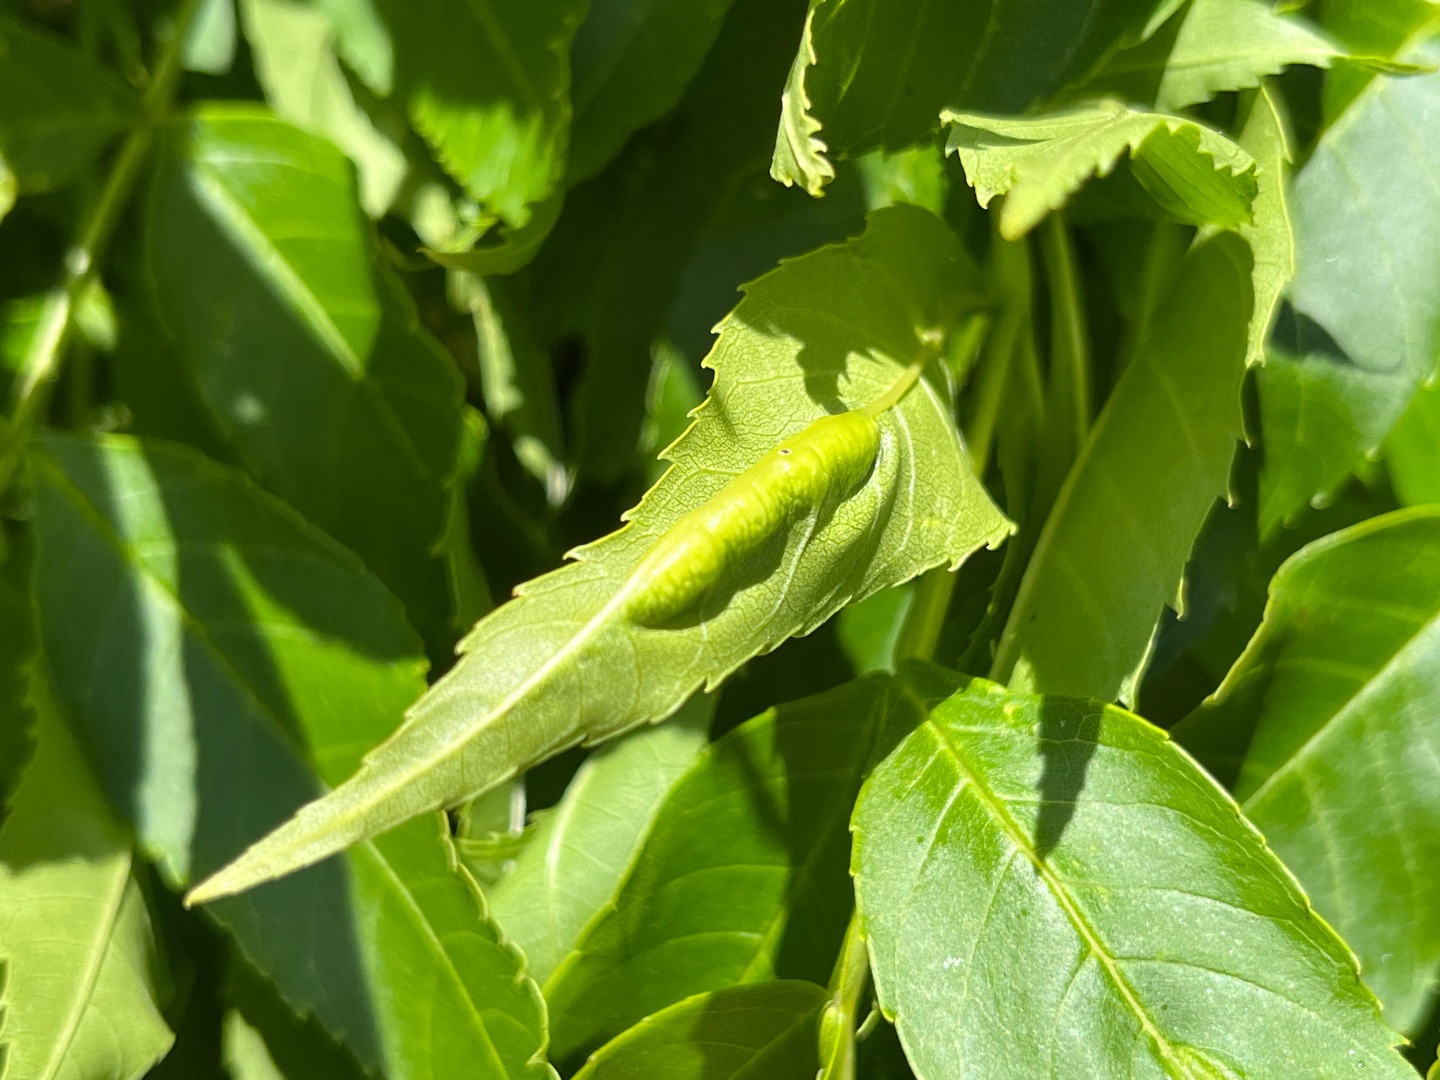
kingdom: Animalia
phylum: Arthropoda
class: Insecta
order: Diptera
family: Cecidomyiidae
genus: Dasineura
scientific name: Dasineura fraxini
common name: Orange askebladgalmyg
